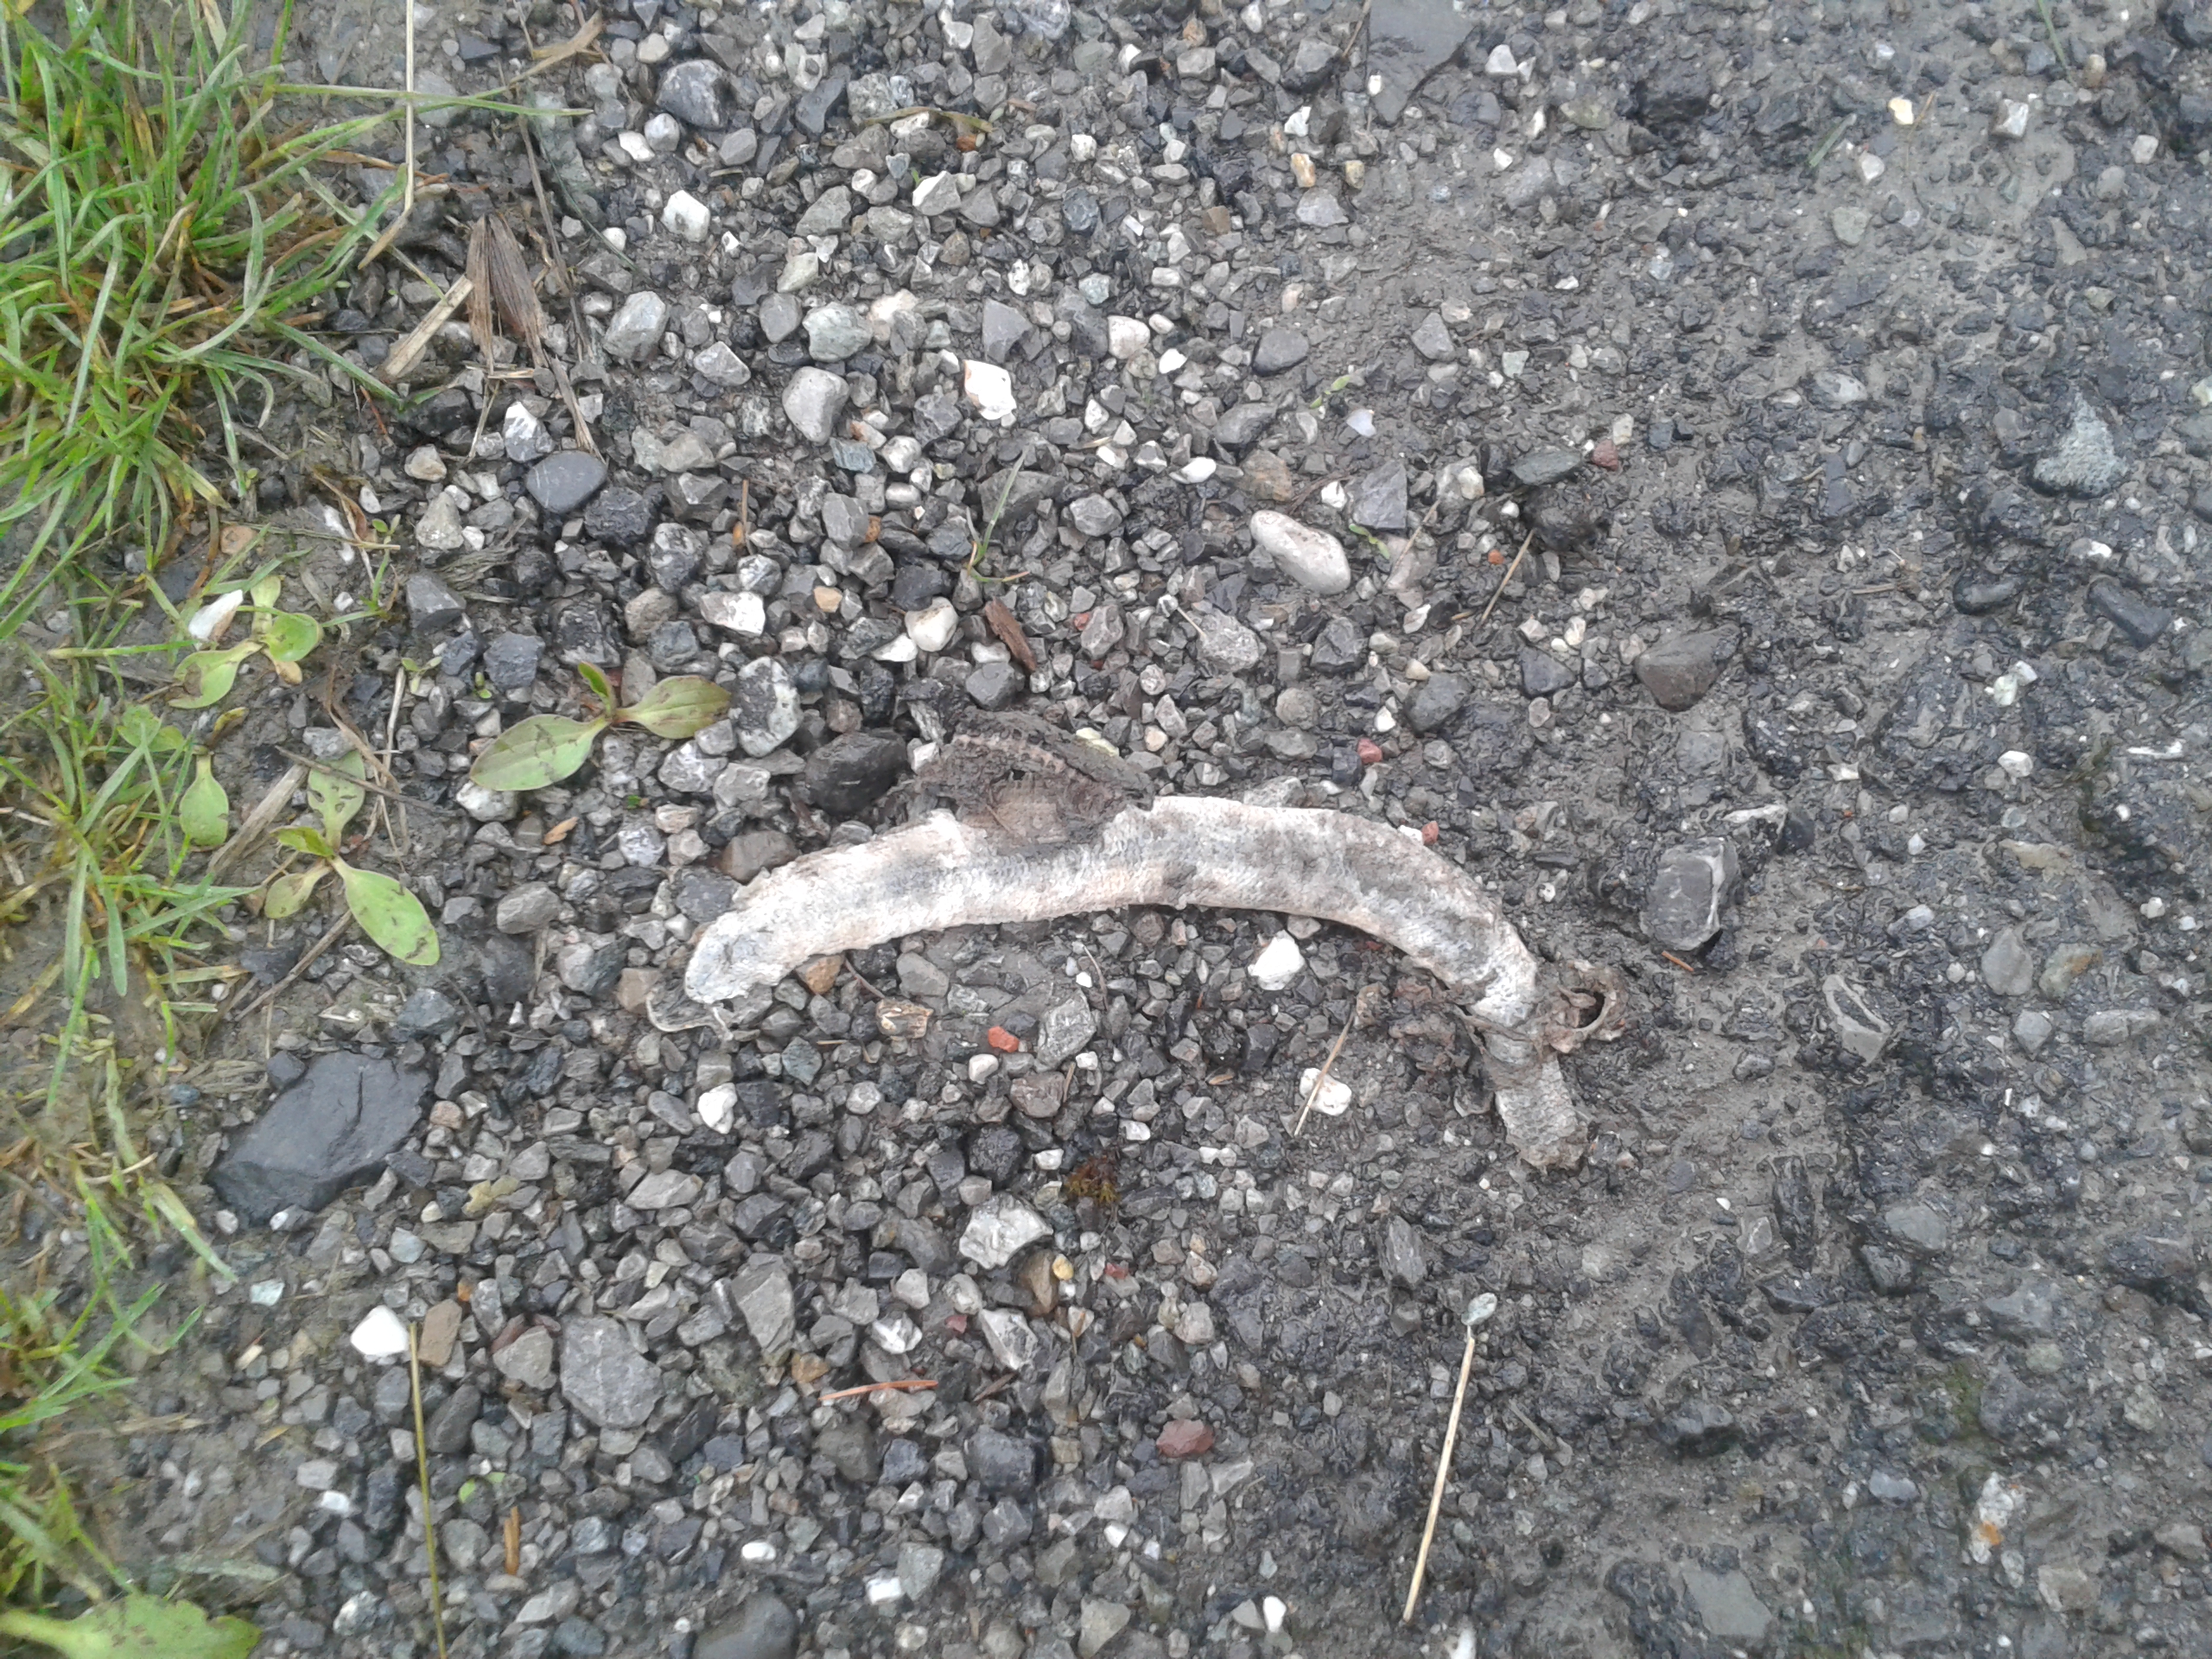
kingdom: Animalia
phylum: Chordata
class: Squamata
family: Anguidae
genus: Anguis
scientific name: Anguis fragilis
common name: Slow worm
